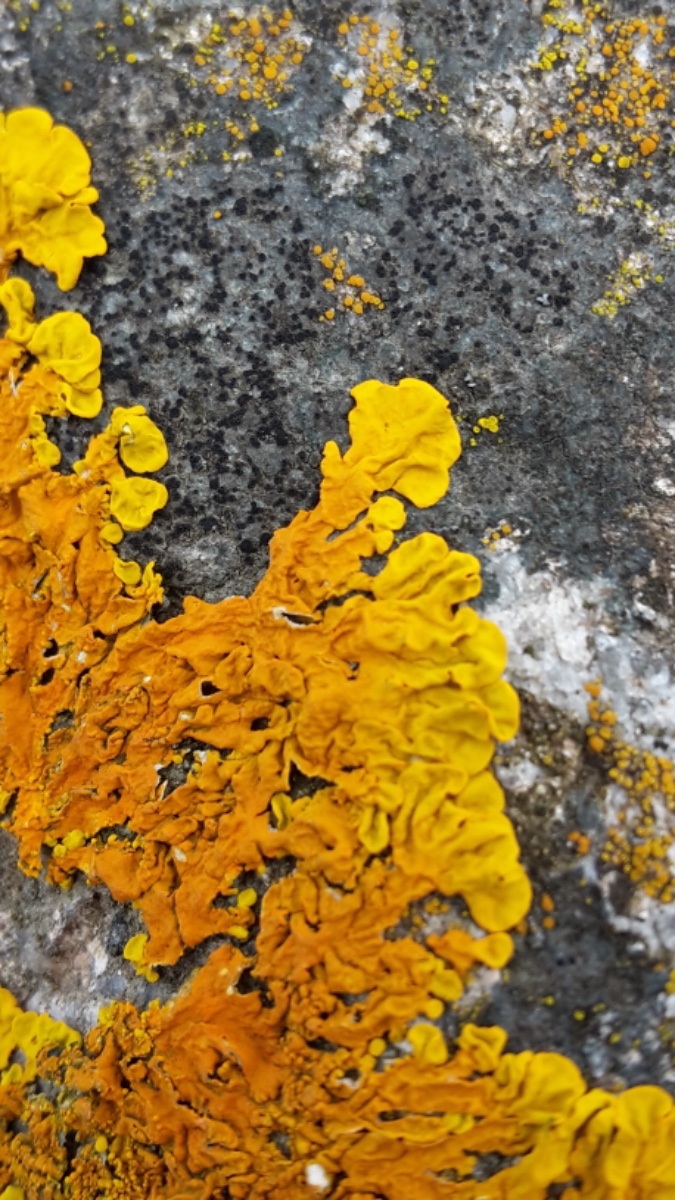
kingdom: Fungi
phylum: Ascomycota
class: Lecanoromycetes
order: Teloschistales
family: Teloschistaceae
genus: Xanthoria
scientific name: Xanthoria aureola
